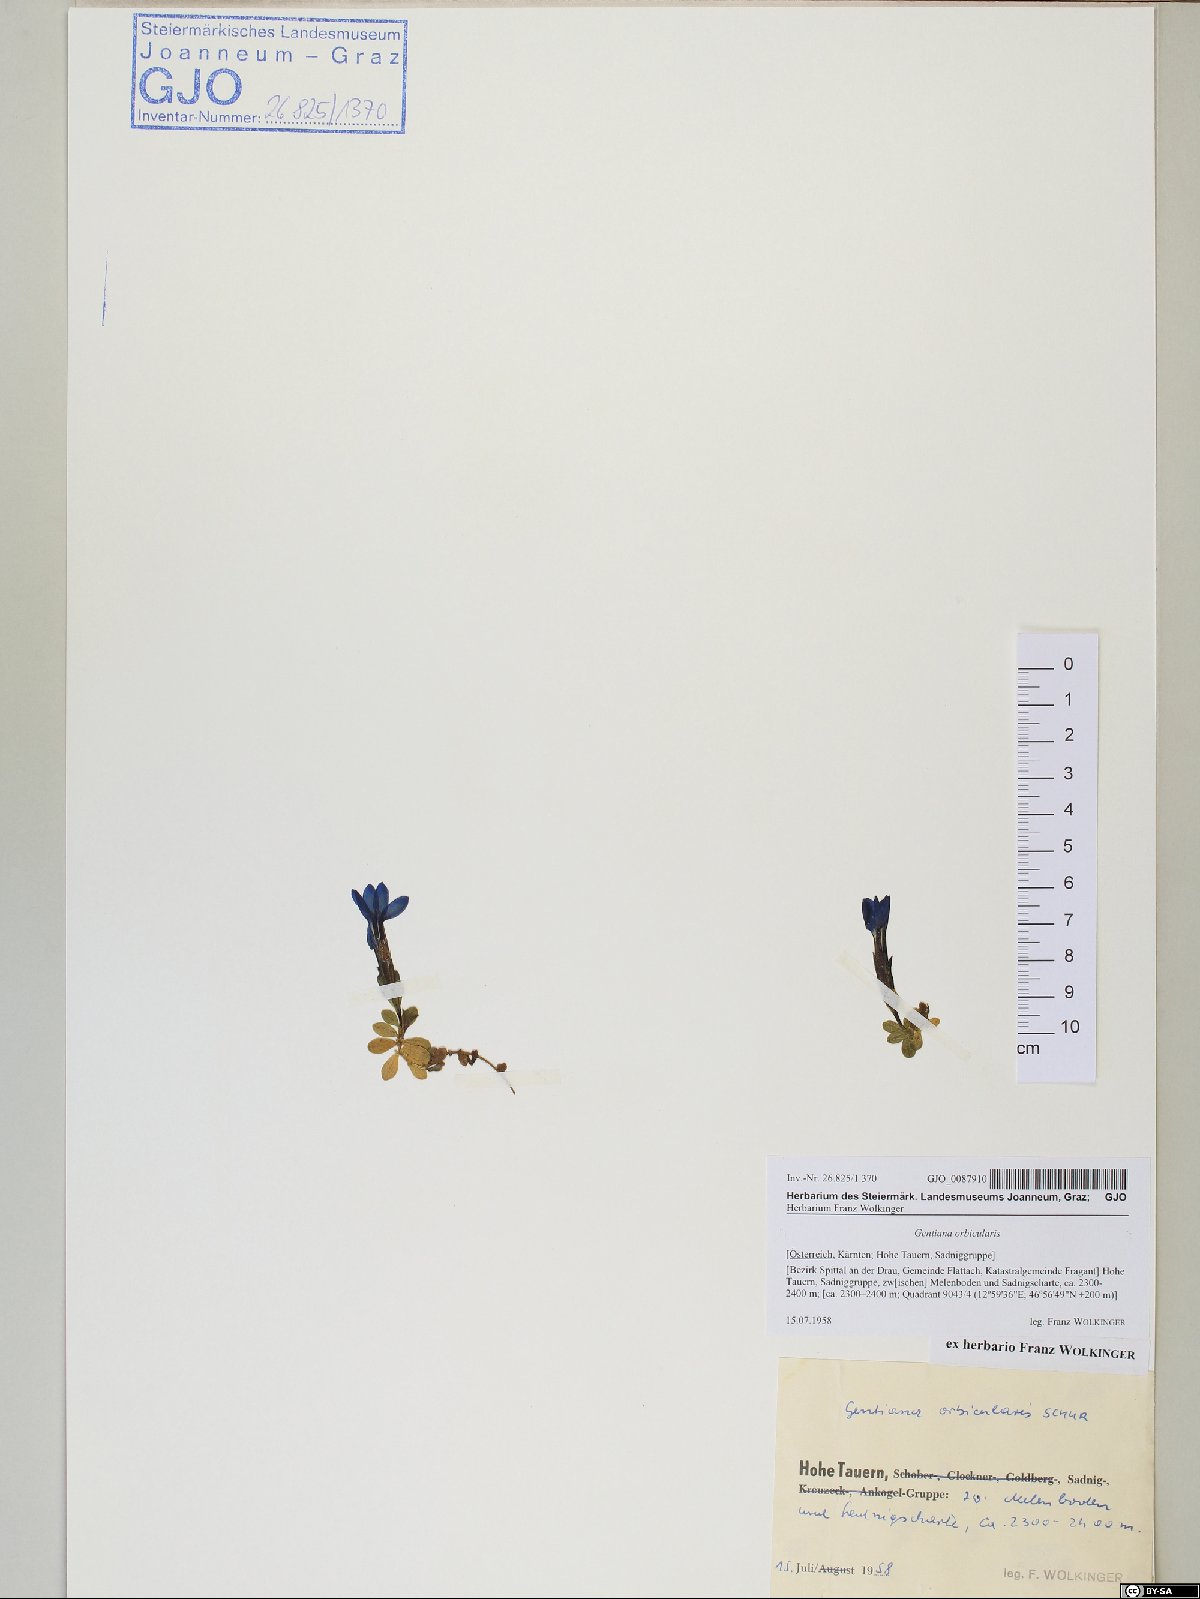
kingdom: Plantae
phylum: Tracheophyta
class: Magnoliopsida
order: Gentianales
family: Gentianaceae
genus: Gentiana
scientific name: Gentiana orbicularis
